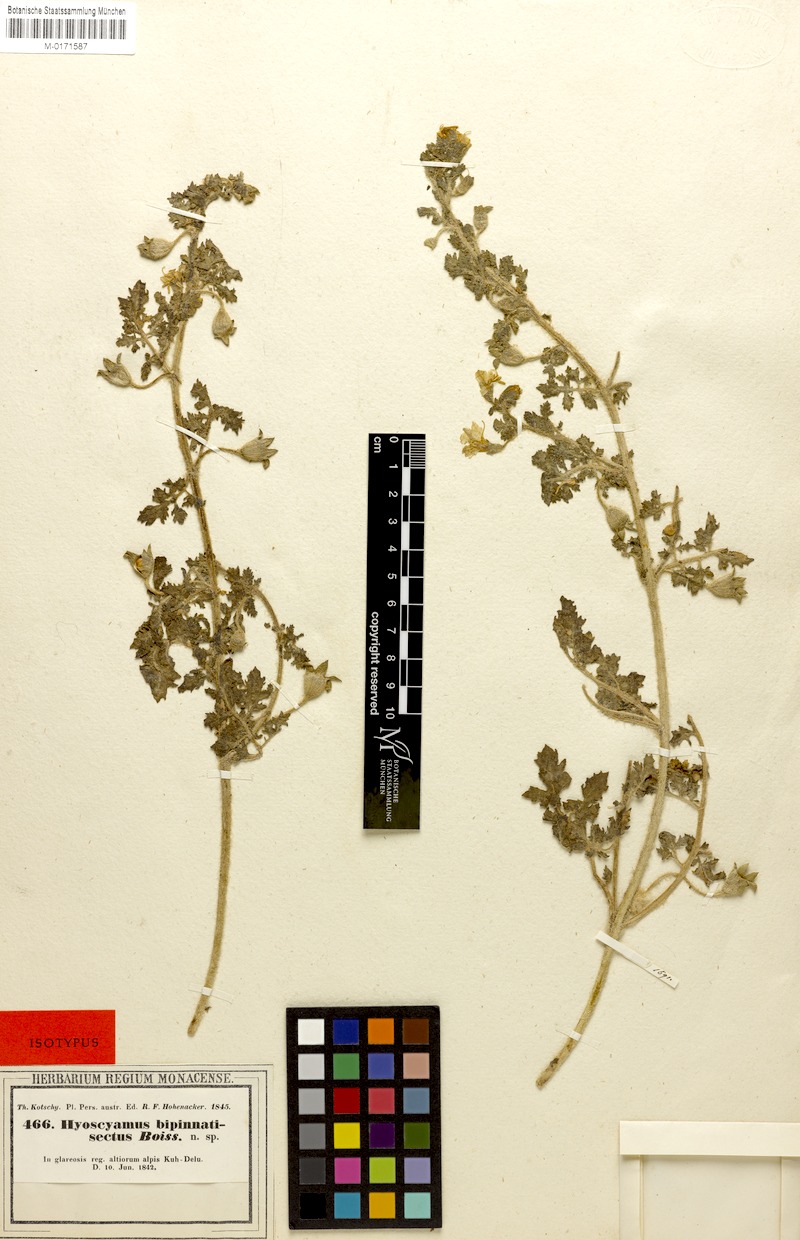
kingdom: Plantae
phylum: Tracheophyta
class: Magnoliopsida
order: Solanales
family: Solanaceae
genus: Hyoscyamus
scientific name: Hyoscyamus senecionis
